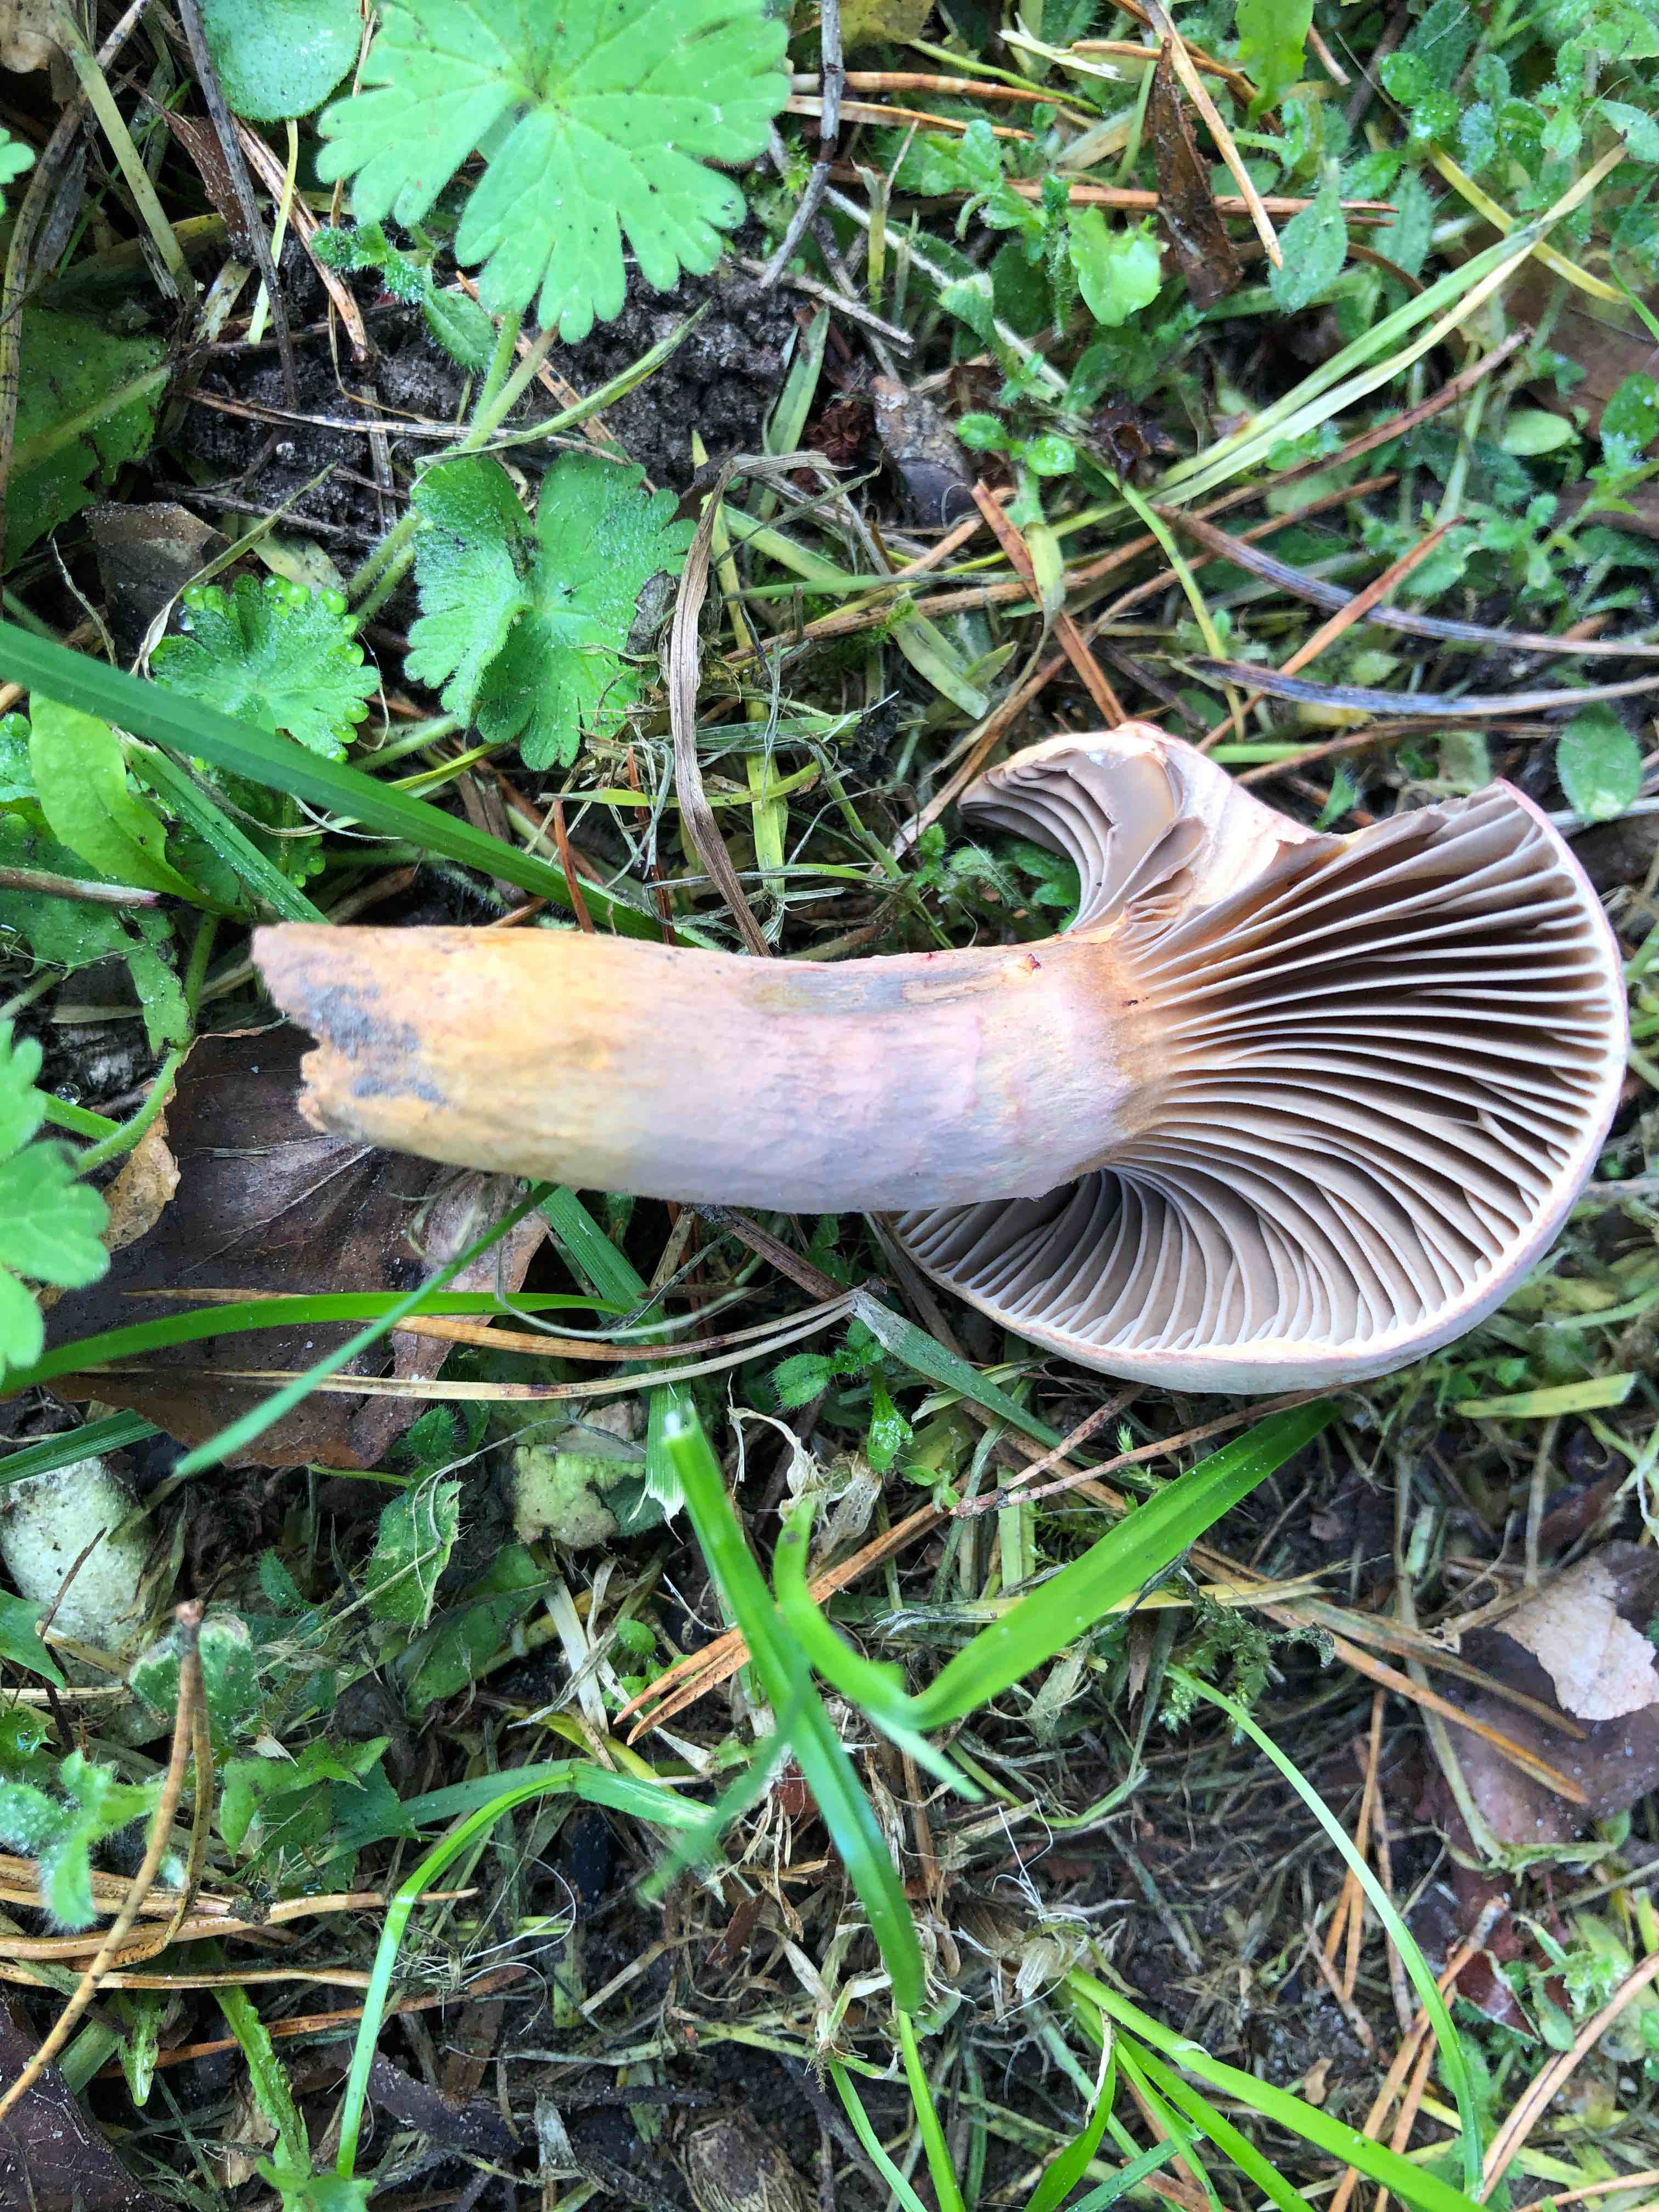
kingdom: Fungi
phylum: Basidiomycota
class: Agaricomycetes
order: Boletales
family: Gomphidiaceae
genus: Chroogomphus
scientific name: Chroogomphus rutilus
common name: brunrød slimslør
